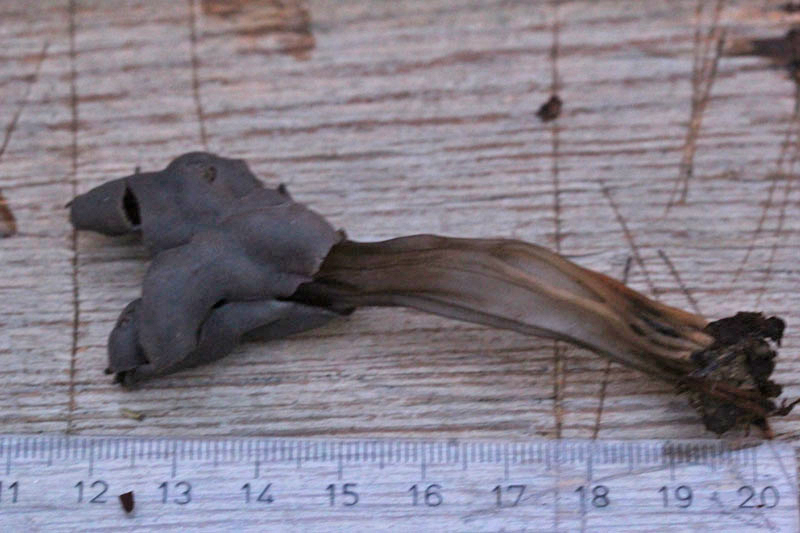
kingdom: Fungi
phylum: Ascomycota
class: Pezizomycetes
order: Pezizales
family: Helvellaceae
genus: Helvella
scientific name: Helvella lacunosa
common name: grubet foldhat
